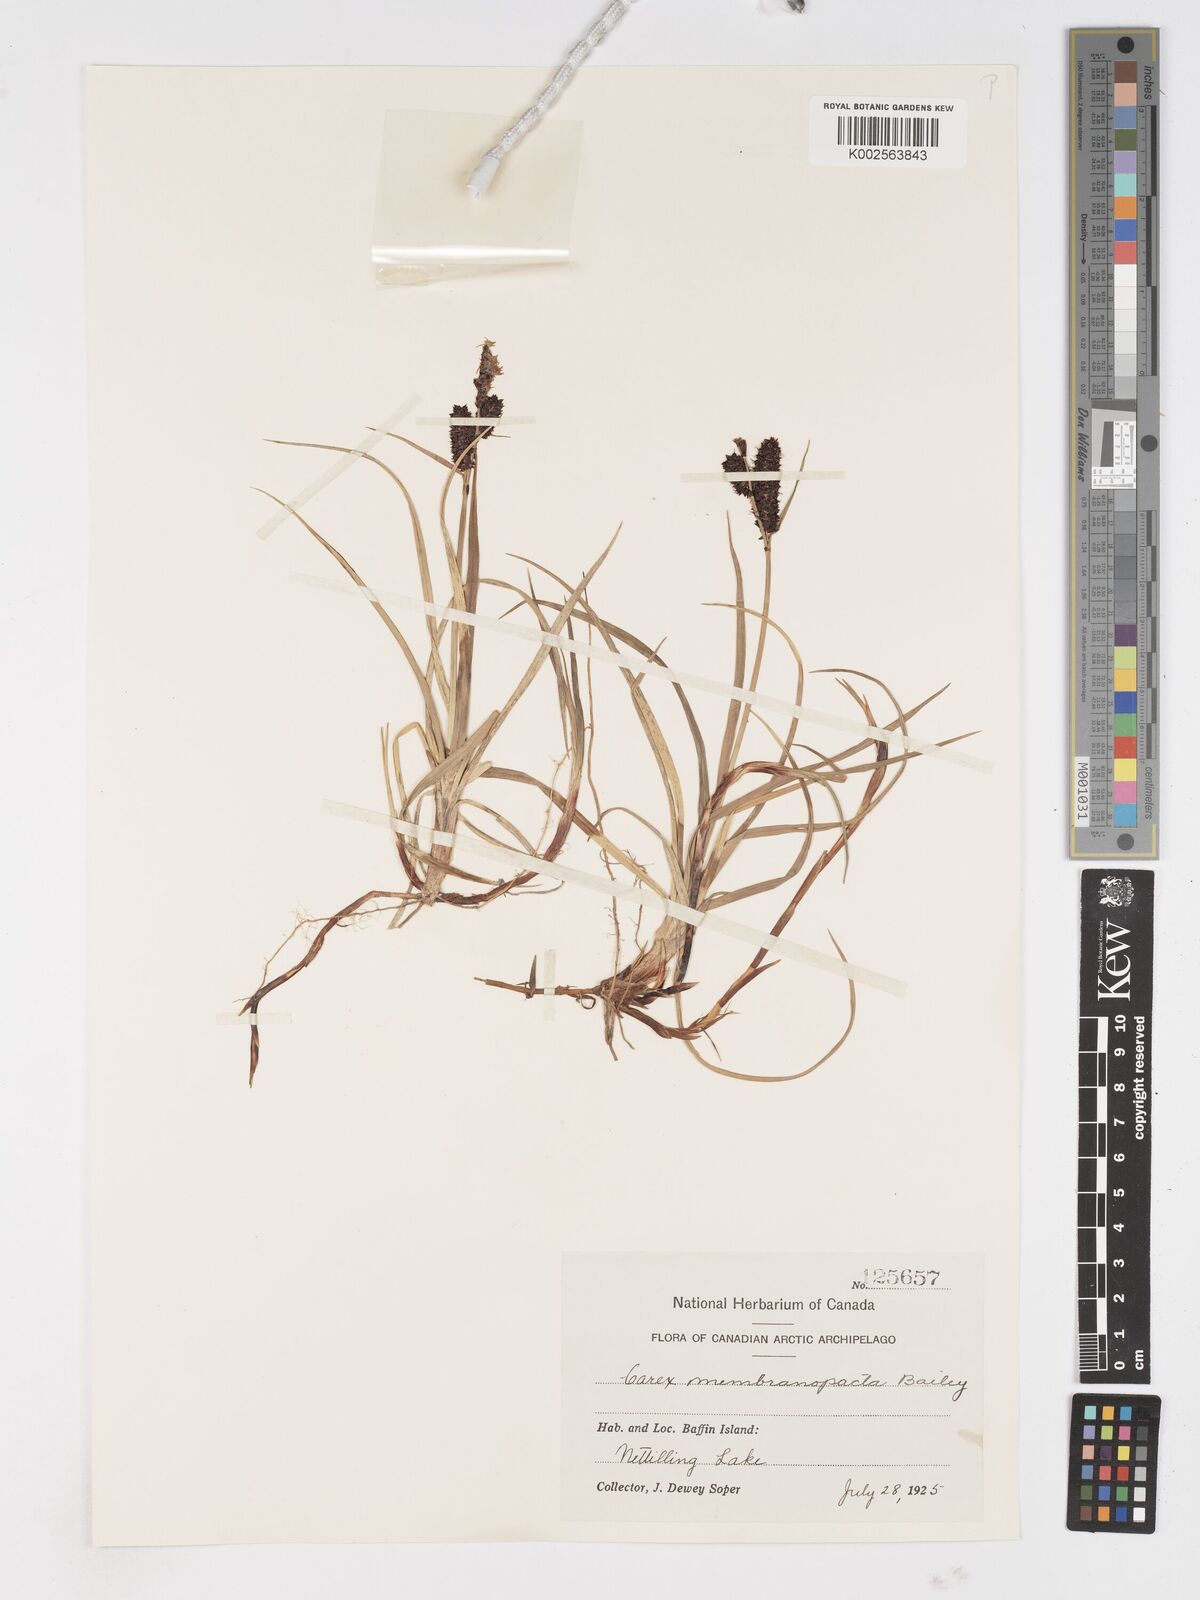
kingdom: Plantae
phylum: Tracheophyta
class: Liliopsida
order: Poales
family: Cyperaceae
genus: Carex
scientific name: Carex membranacea
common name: Fragile sedge
